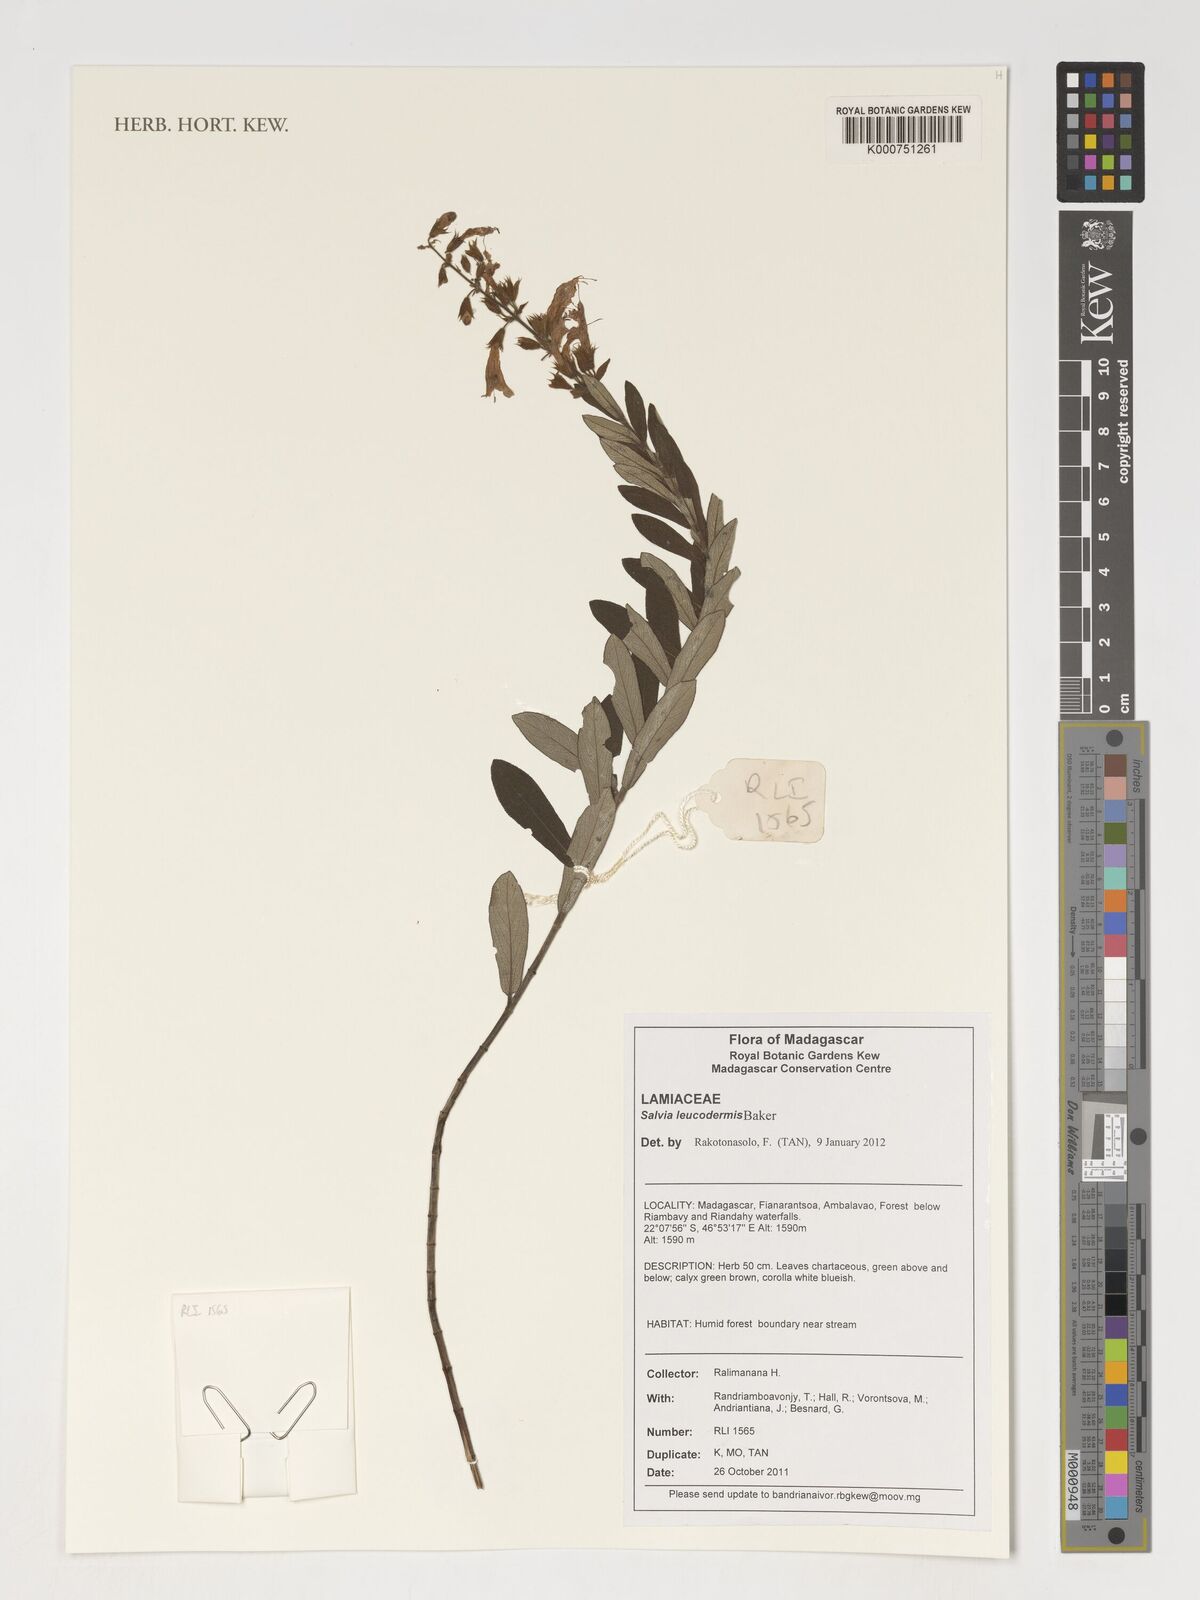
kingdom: Plantae
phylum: Tracheophyta
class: Magnoliopsida
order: Lamiales
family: Lamiaceae
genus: Salvia
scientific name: Salvia leucodermis
